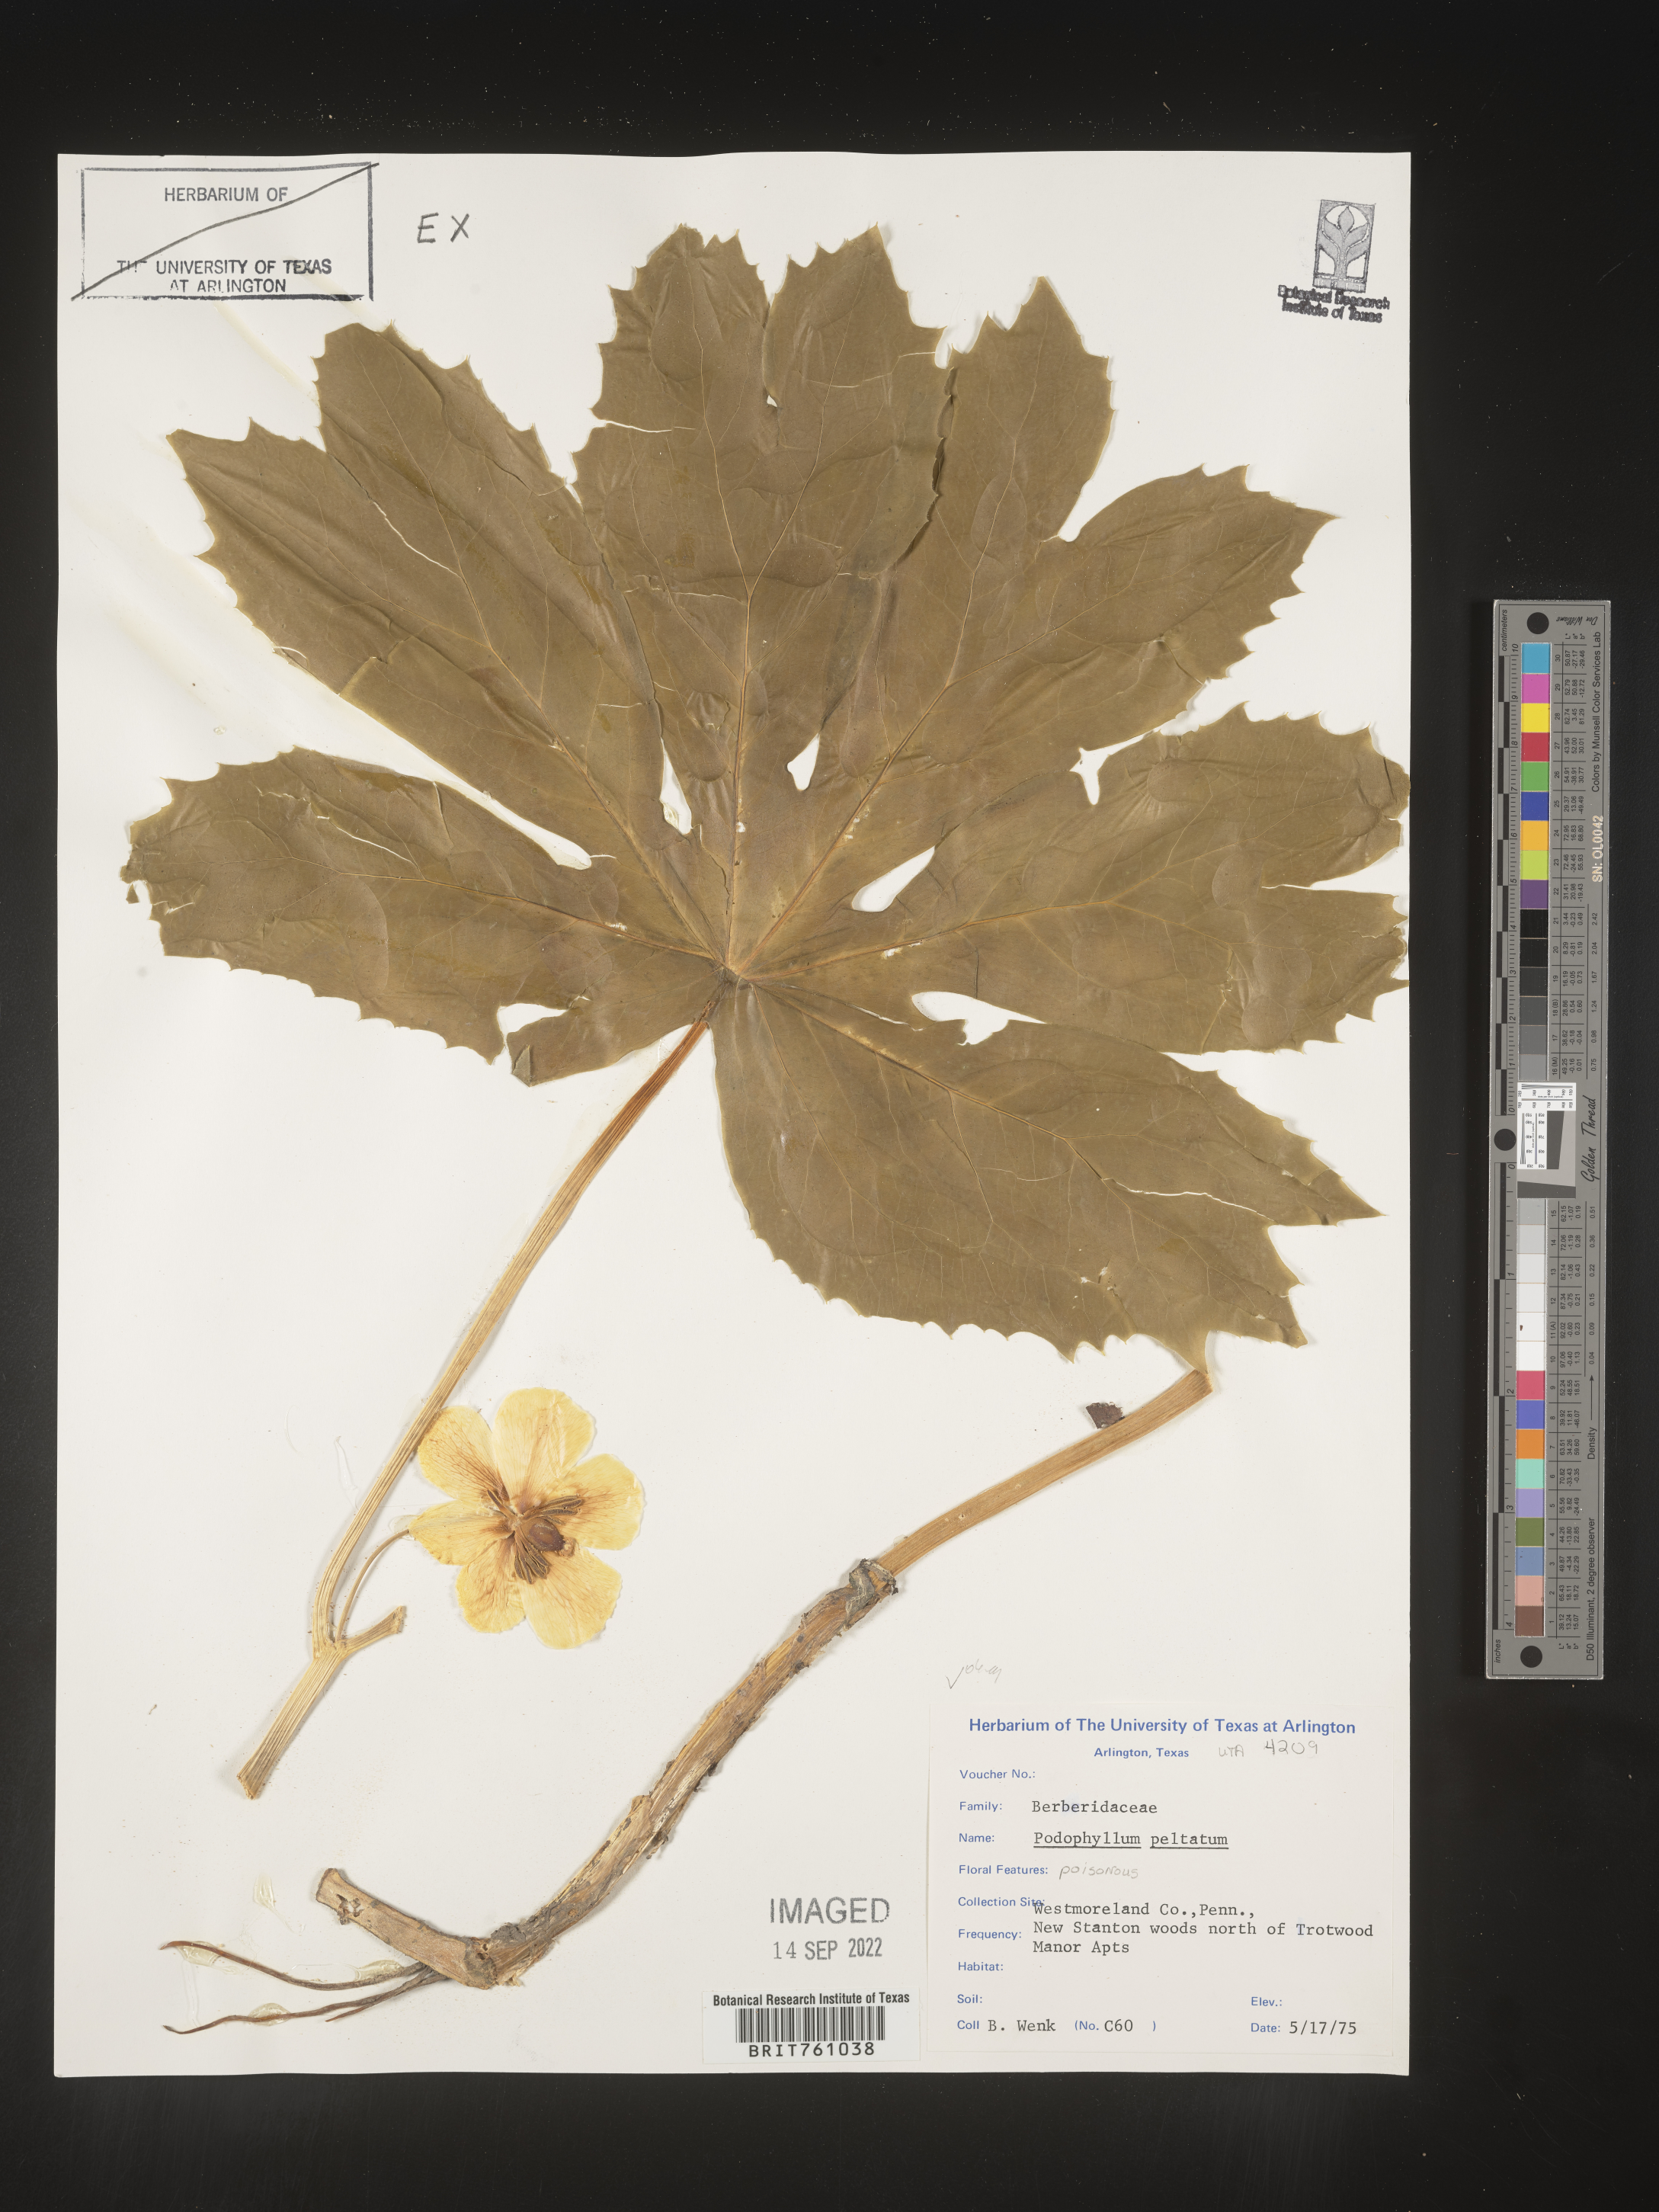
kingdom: Plantae
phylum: Tracheophyta
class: Magnoliopsida
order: Ranunculales
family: Berberidaceae
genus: Podophyllum
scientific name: Podophyllum peltatum
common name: Wild mandrake
